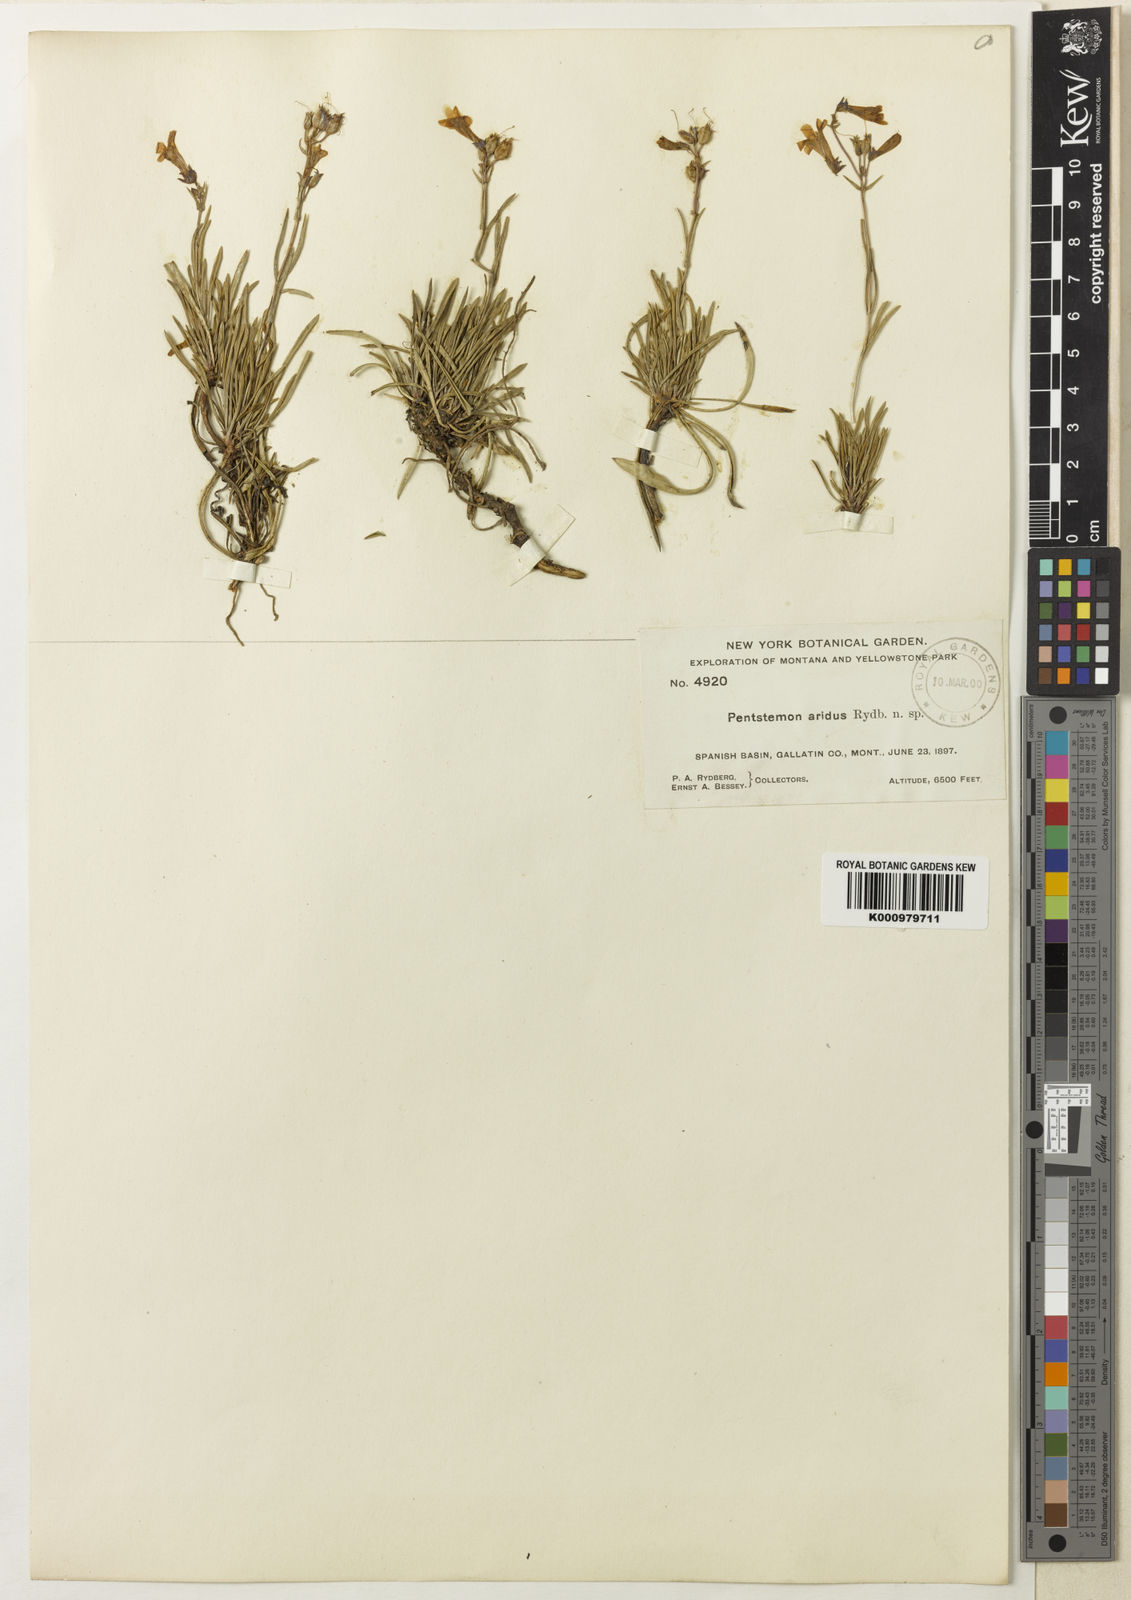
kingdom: Plantae
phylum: Tracheophyta
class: Magnoliopsida
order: Lamiales
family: Plantaginaceae
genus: Penstemon
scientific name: Penstemon aridus
